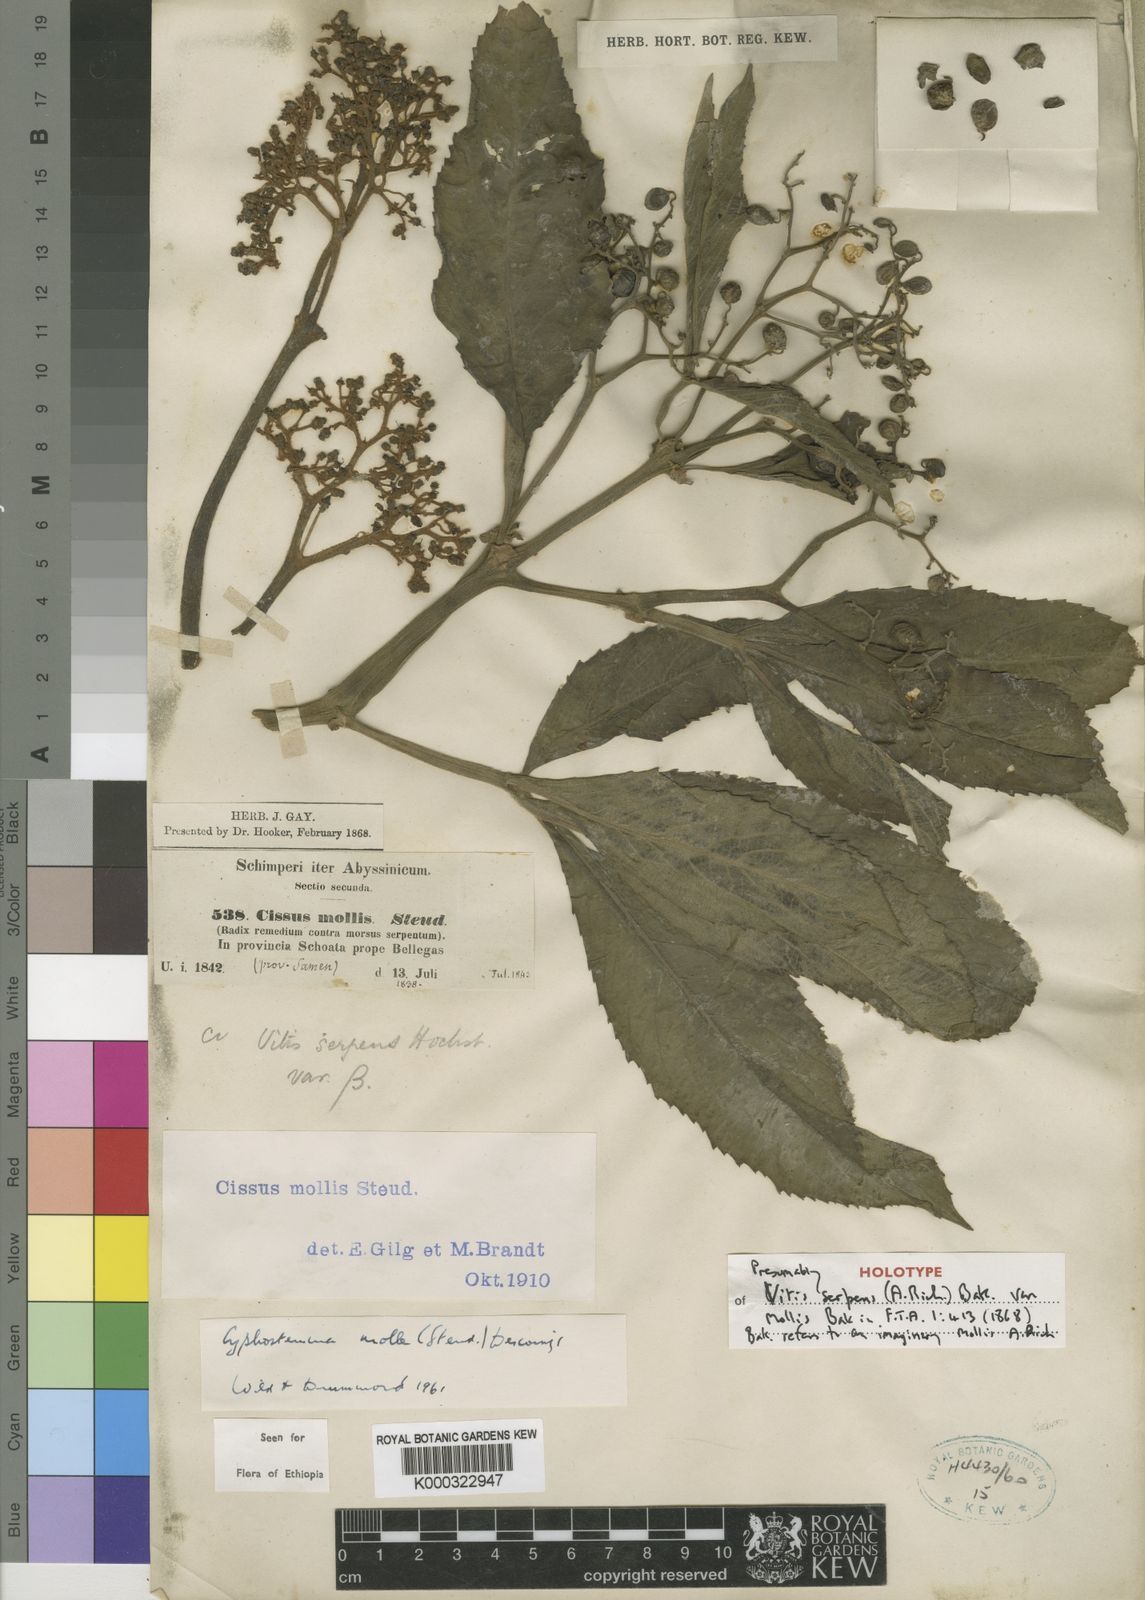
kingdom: Plantae
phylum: Tracheophyta
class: Magnoliopsida
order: Vitales
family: Vitaceae
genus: Cyphostemma
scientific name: Cyphostemma molle
